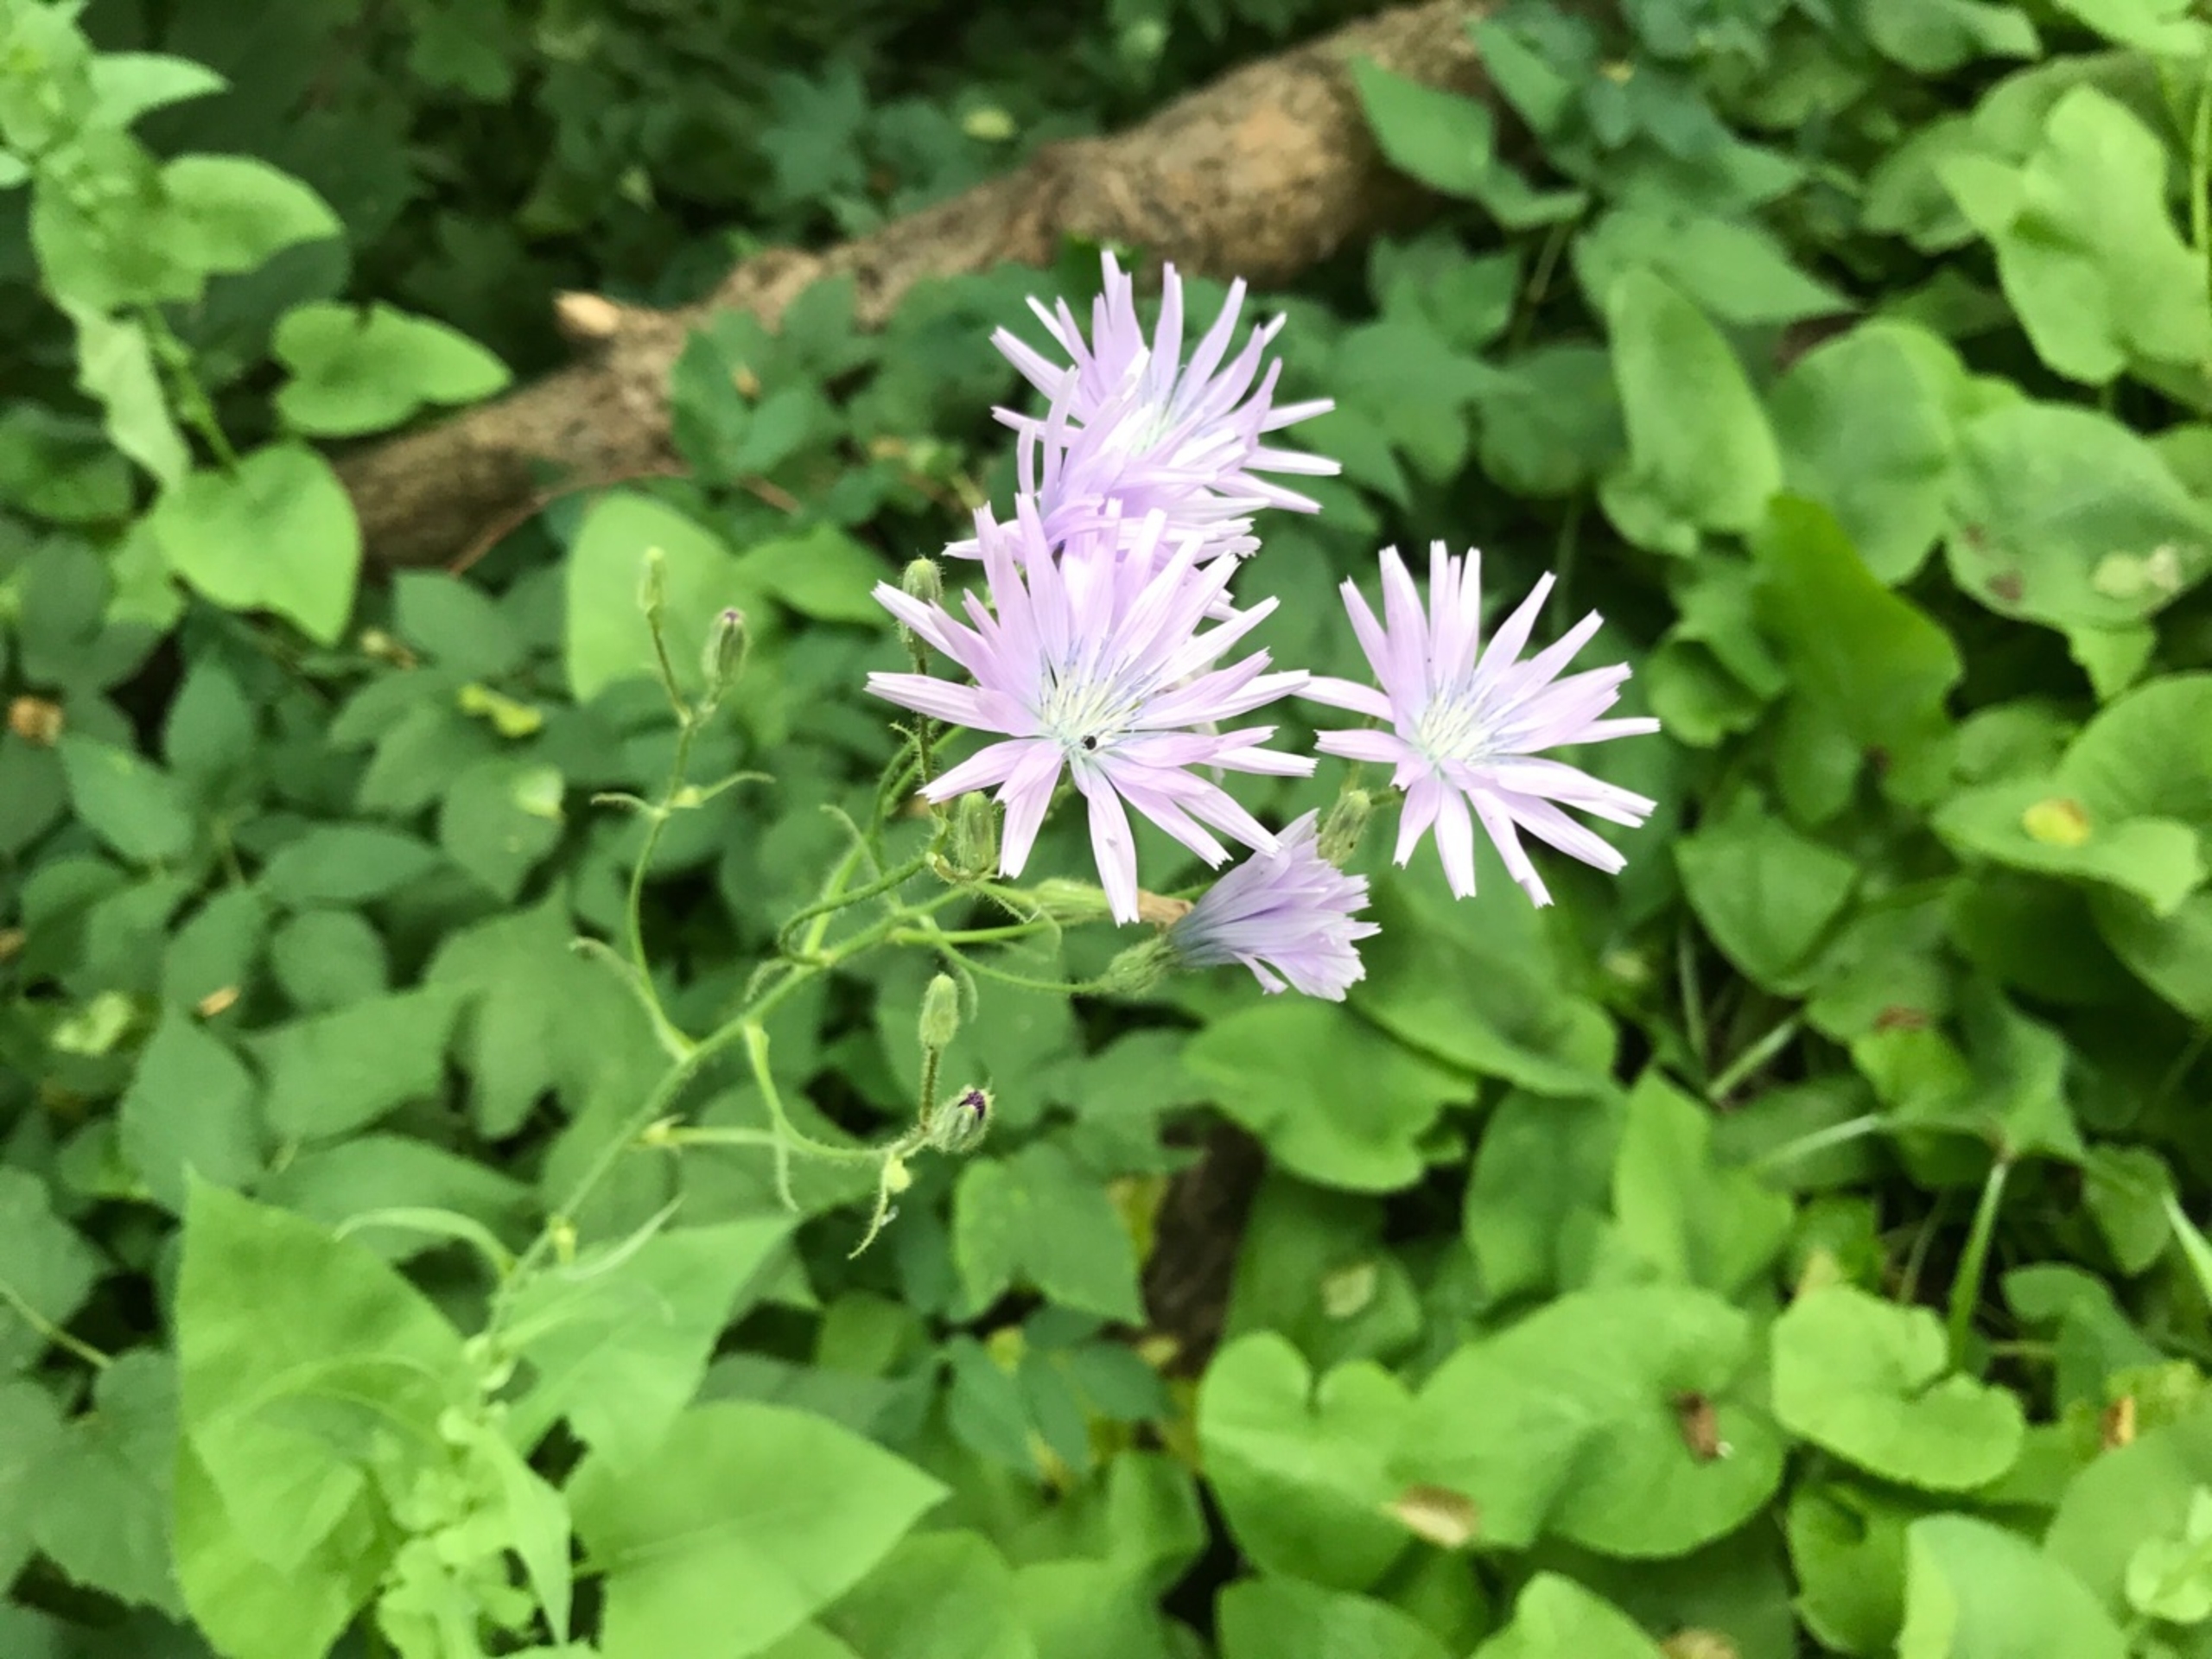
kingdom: Plantae
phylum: Tracheophyta
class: Magnoliopsida
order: Asterales
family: Asteraceae
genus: Lactuca
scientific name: Lactuca macrophylla
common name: Kæmpe-salat
